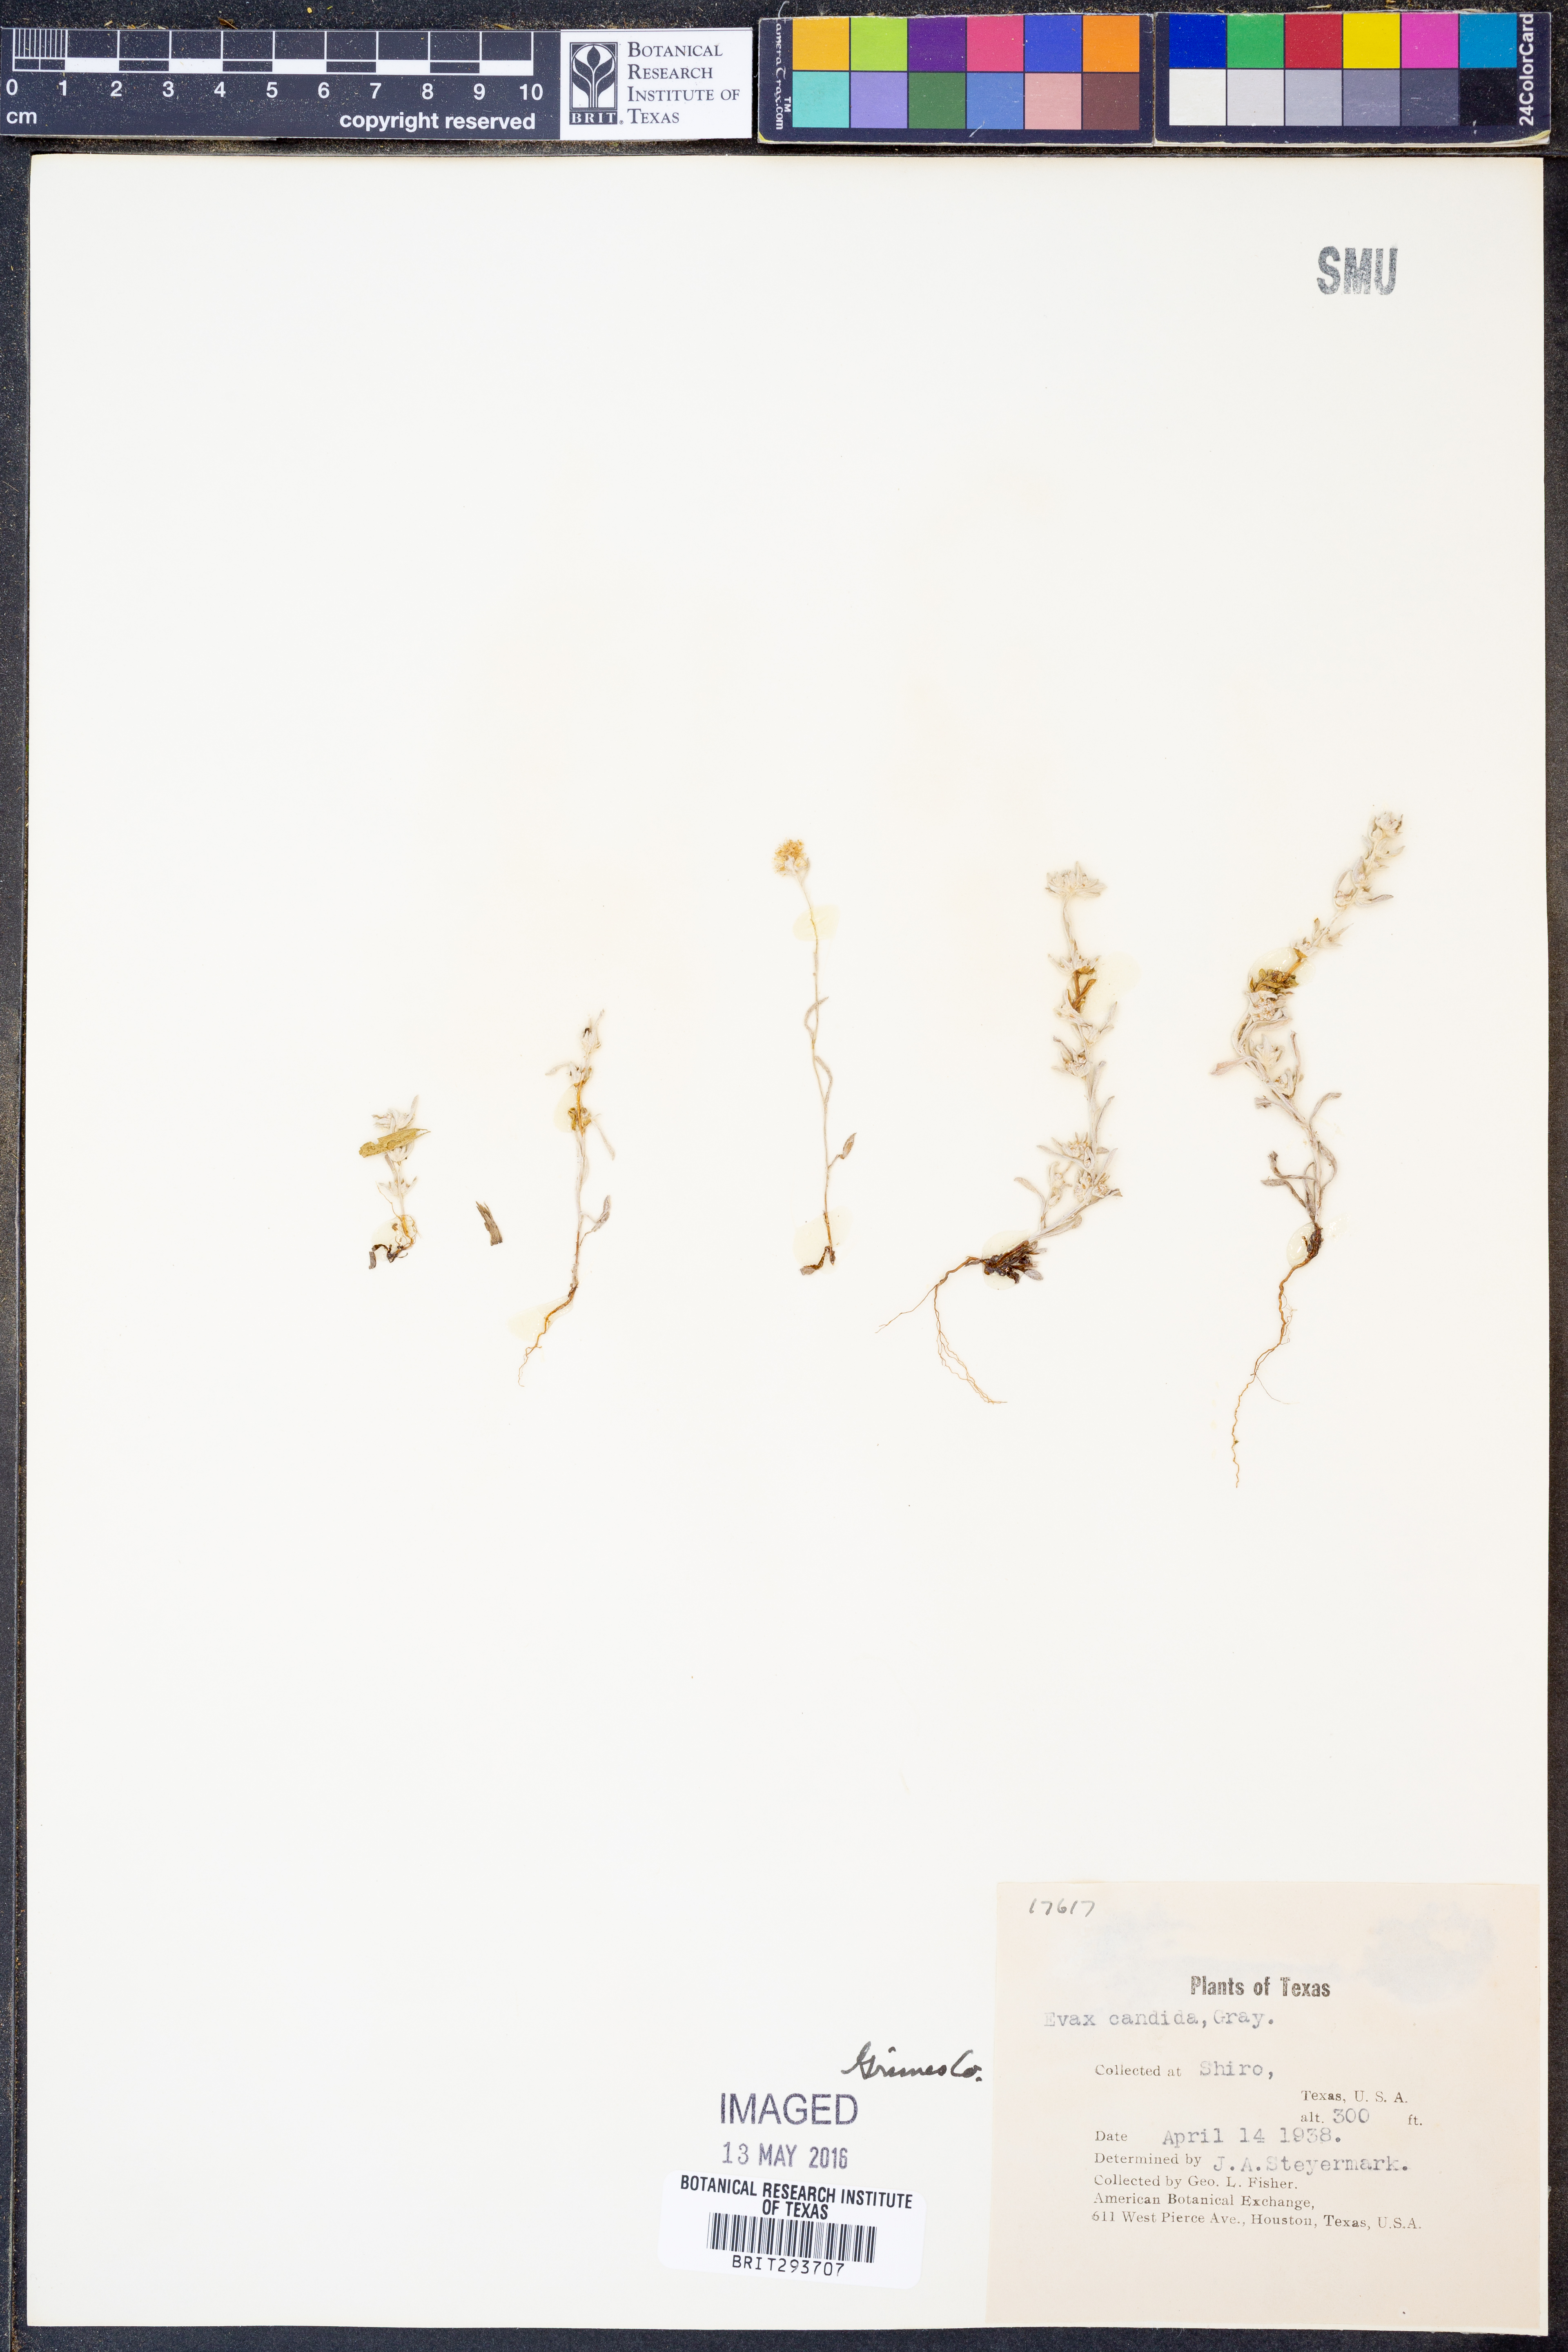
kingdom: Plantae
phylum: Tracheophyta
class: Magnoliopsida
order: Asterales
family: Asteraceae
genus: Diaperia
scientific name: Diaperia candida
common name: Silver rabbit-tobacco
